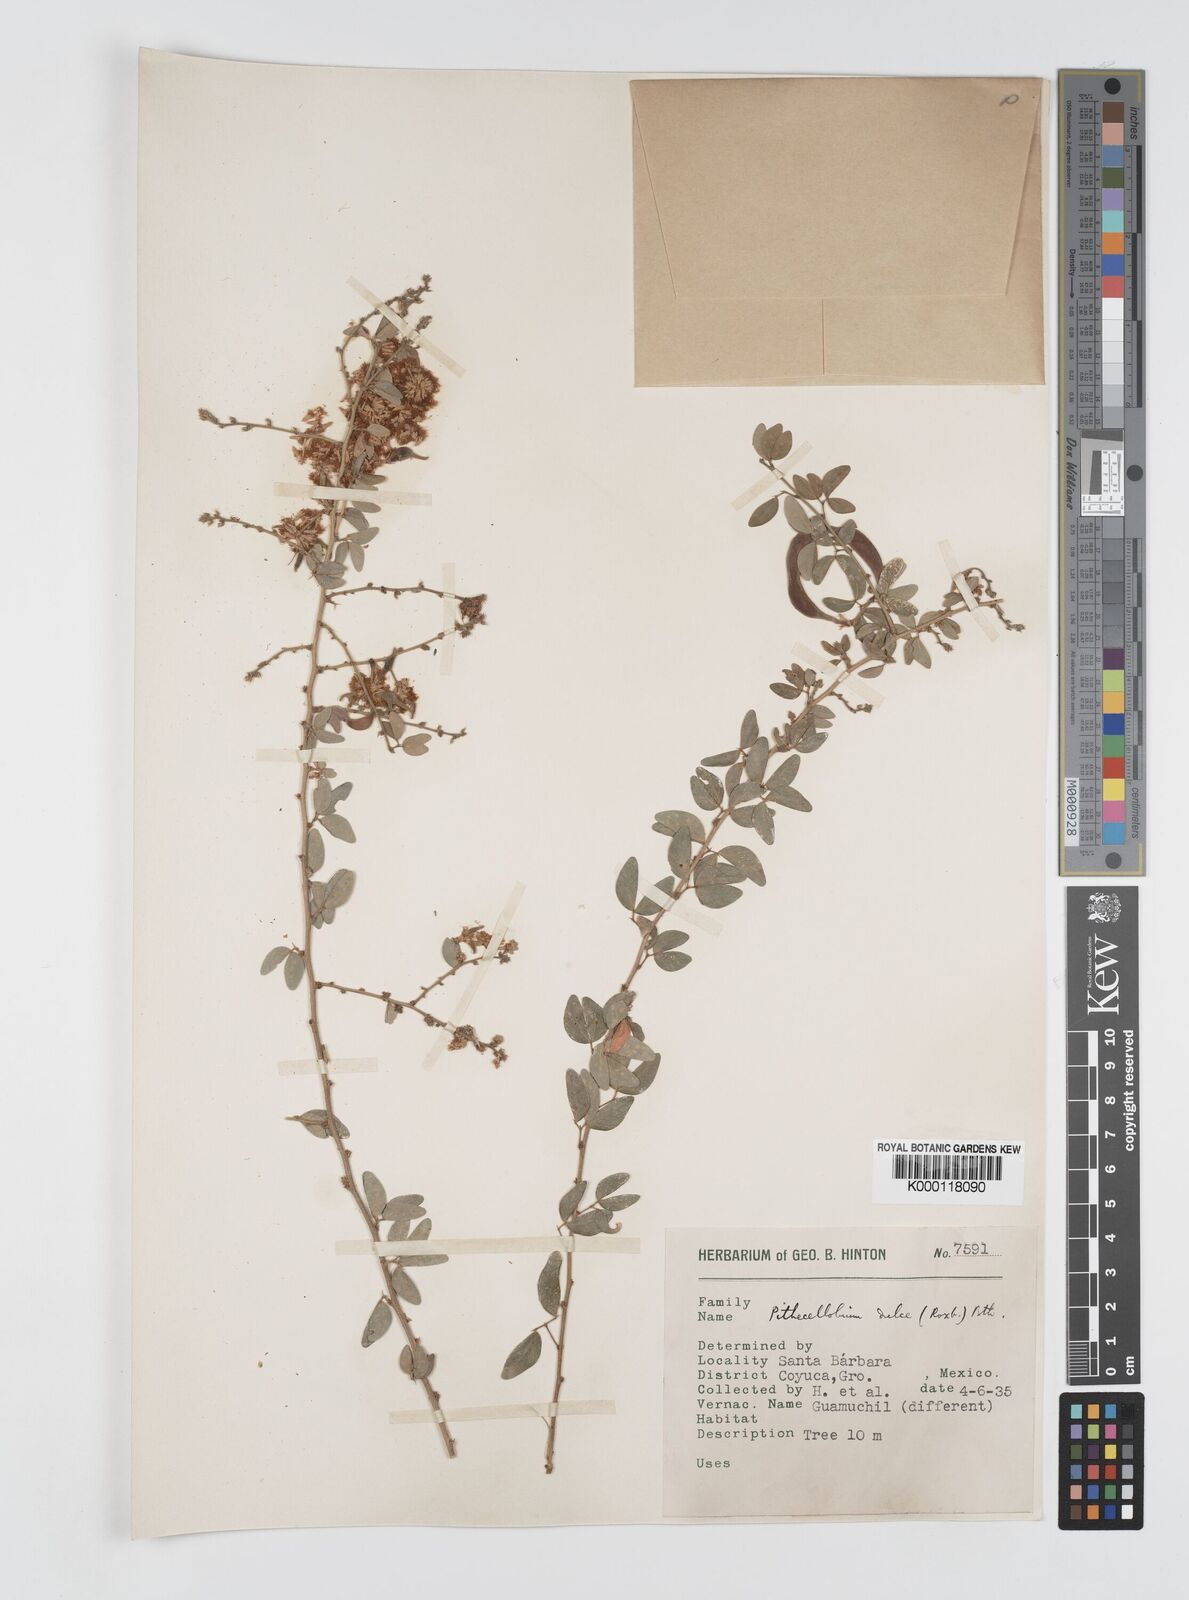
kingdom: Plantae
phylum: Tracheophyta
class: Magnoliopsida
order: Fabales
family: Fabaceae
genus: Pithecellobium
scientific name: Pithecellobium dulce
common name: Monkeypod
